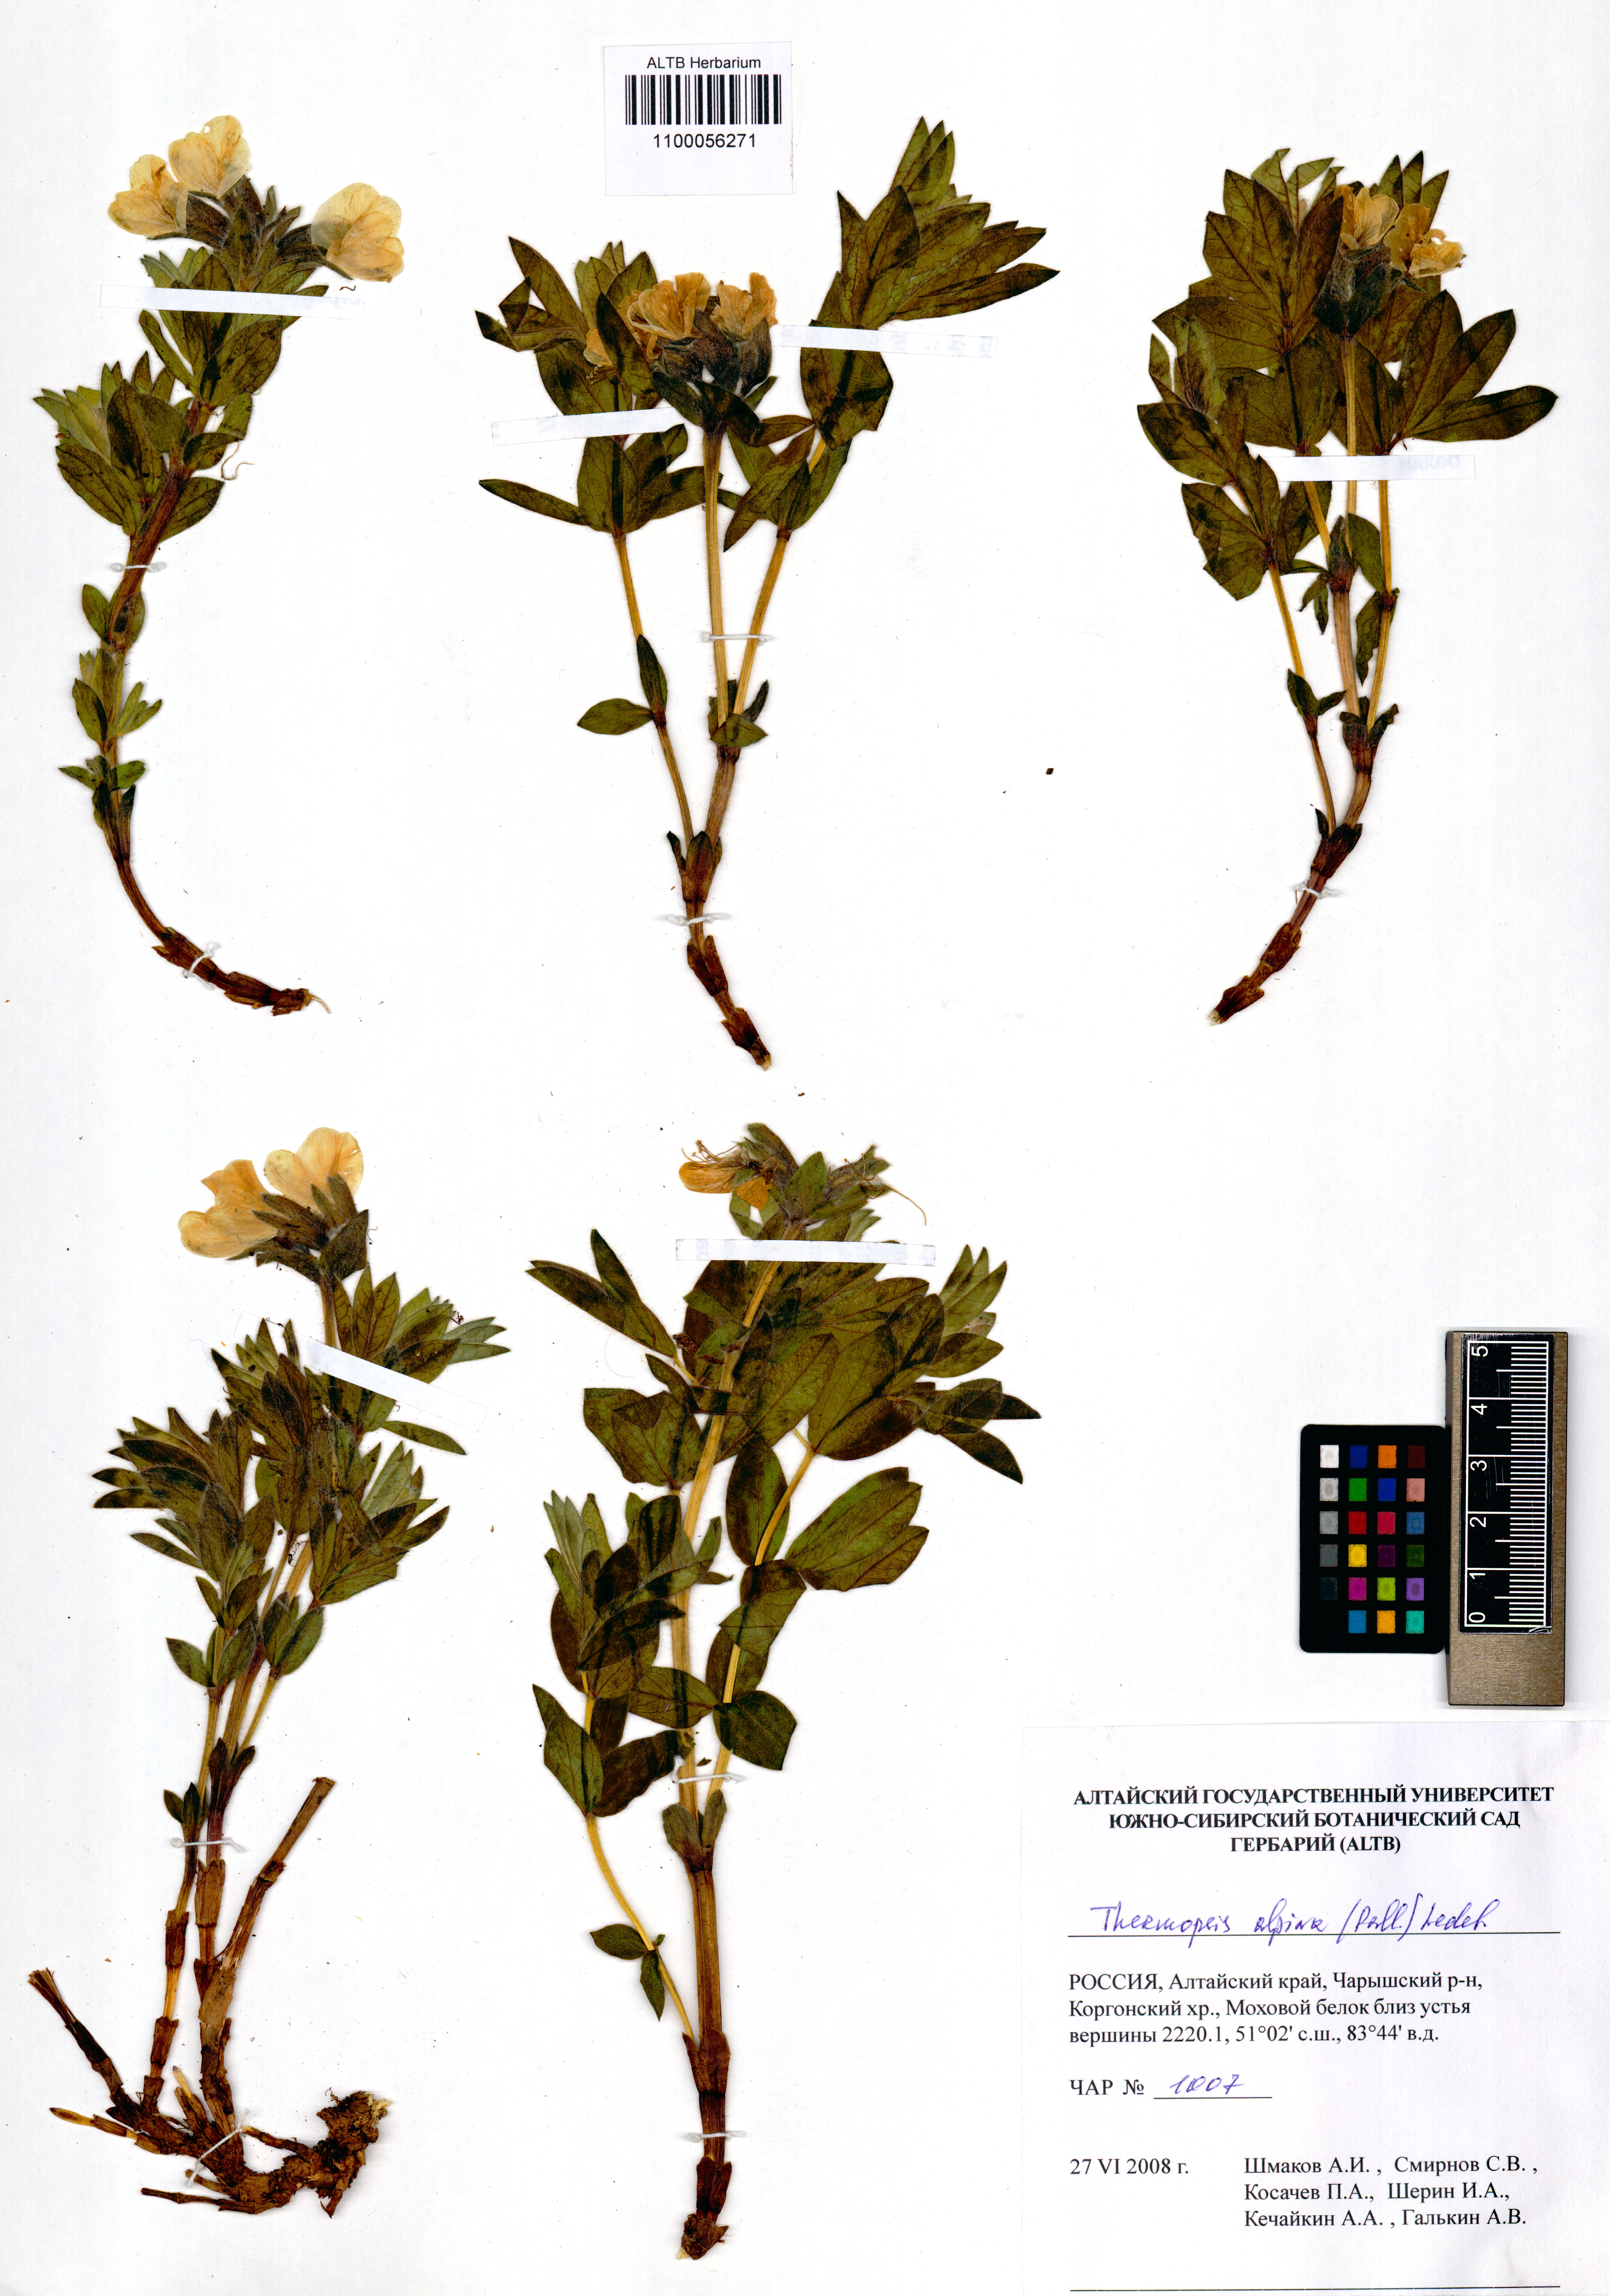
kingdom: Plantae
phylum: Tracheophyta
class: Magnoliopsida
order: Fabales
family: Fabaceae
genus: Thermopsis
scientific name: Thermopsis alpina
